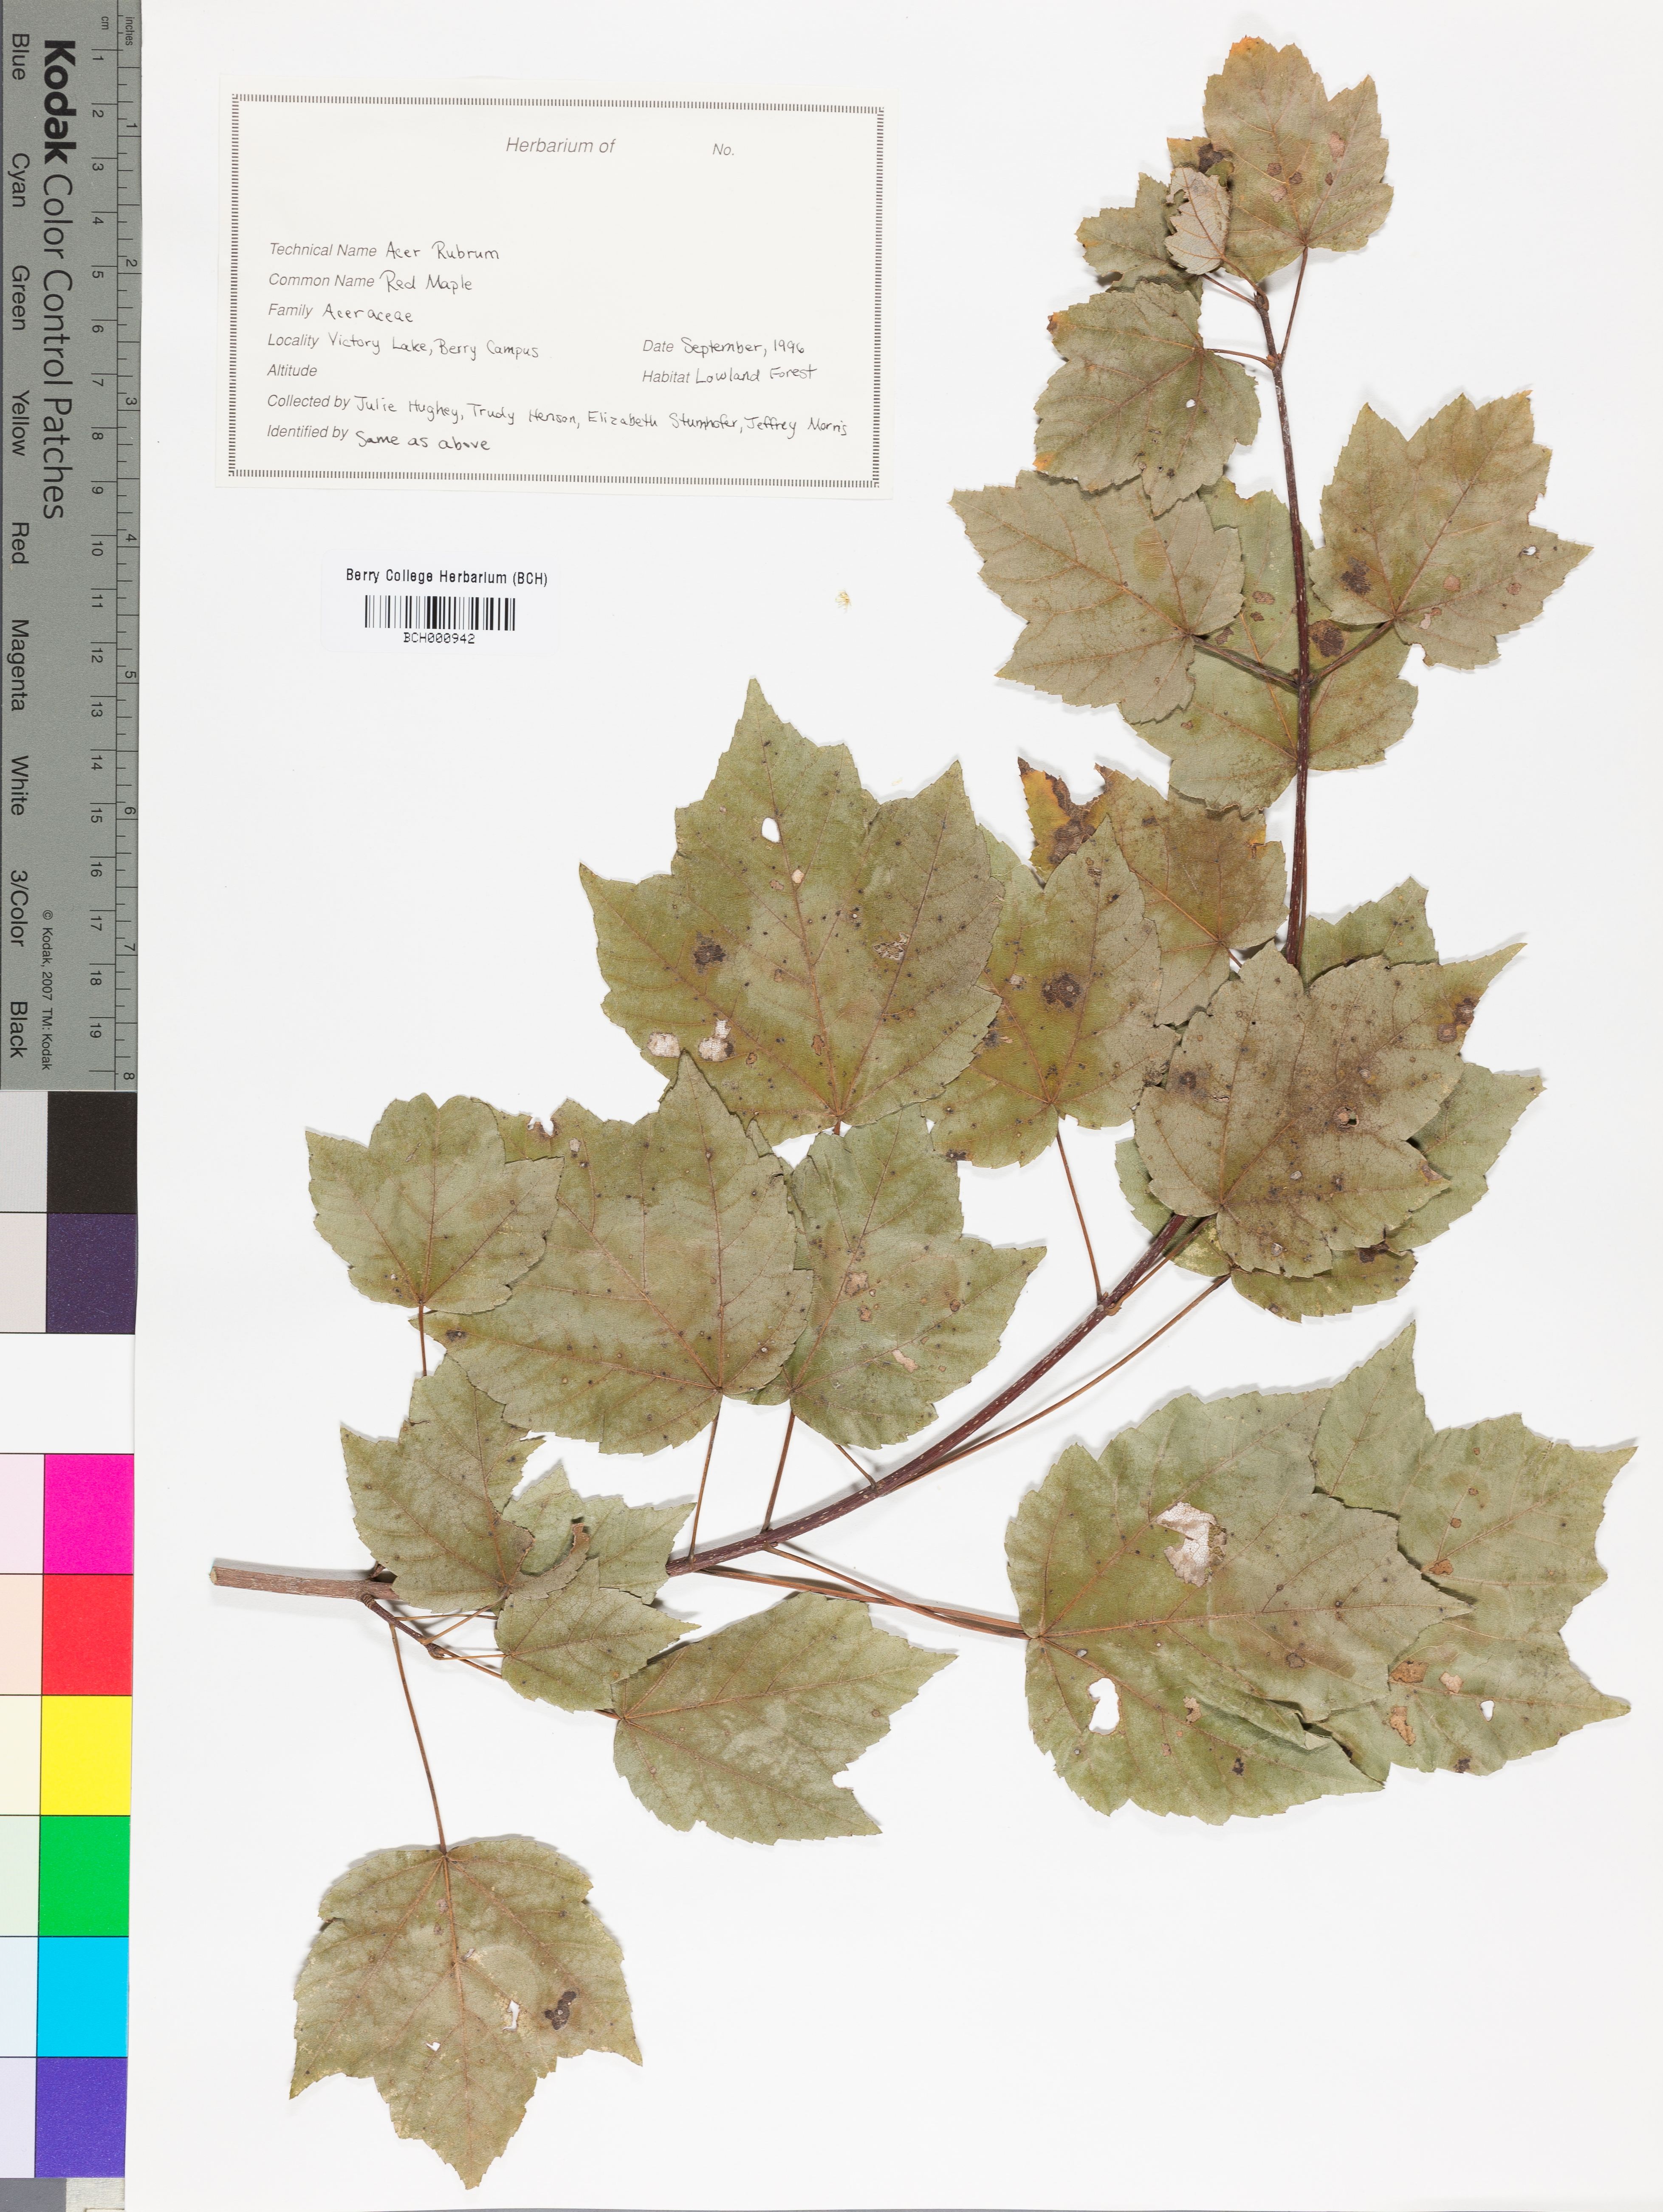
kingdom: Plantae
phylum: Tracheophyta
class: Magnoliopsida
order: Sapindales
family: Sapindaceae
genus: Acer
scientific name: Acer rubrum
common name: Red maple
